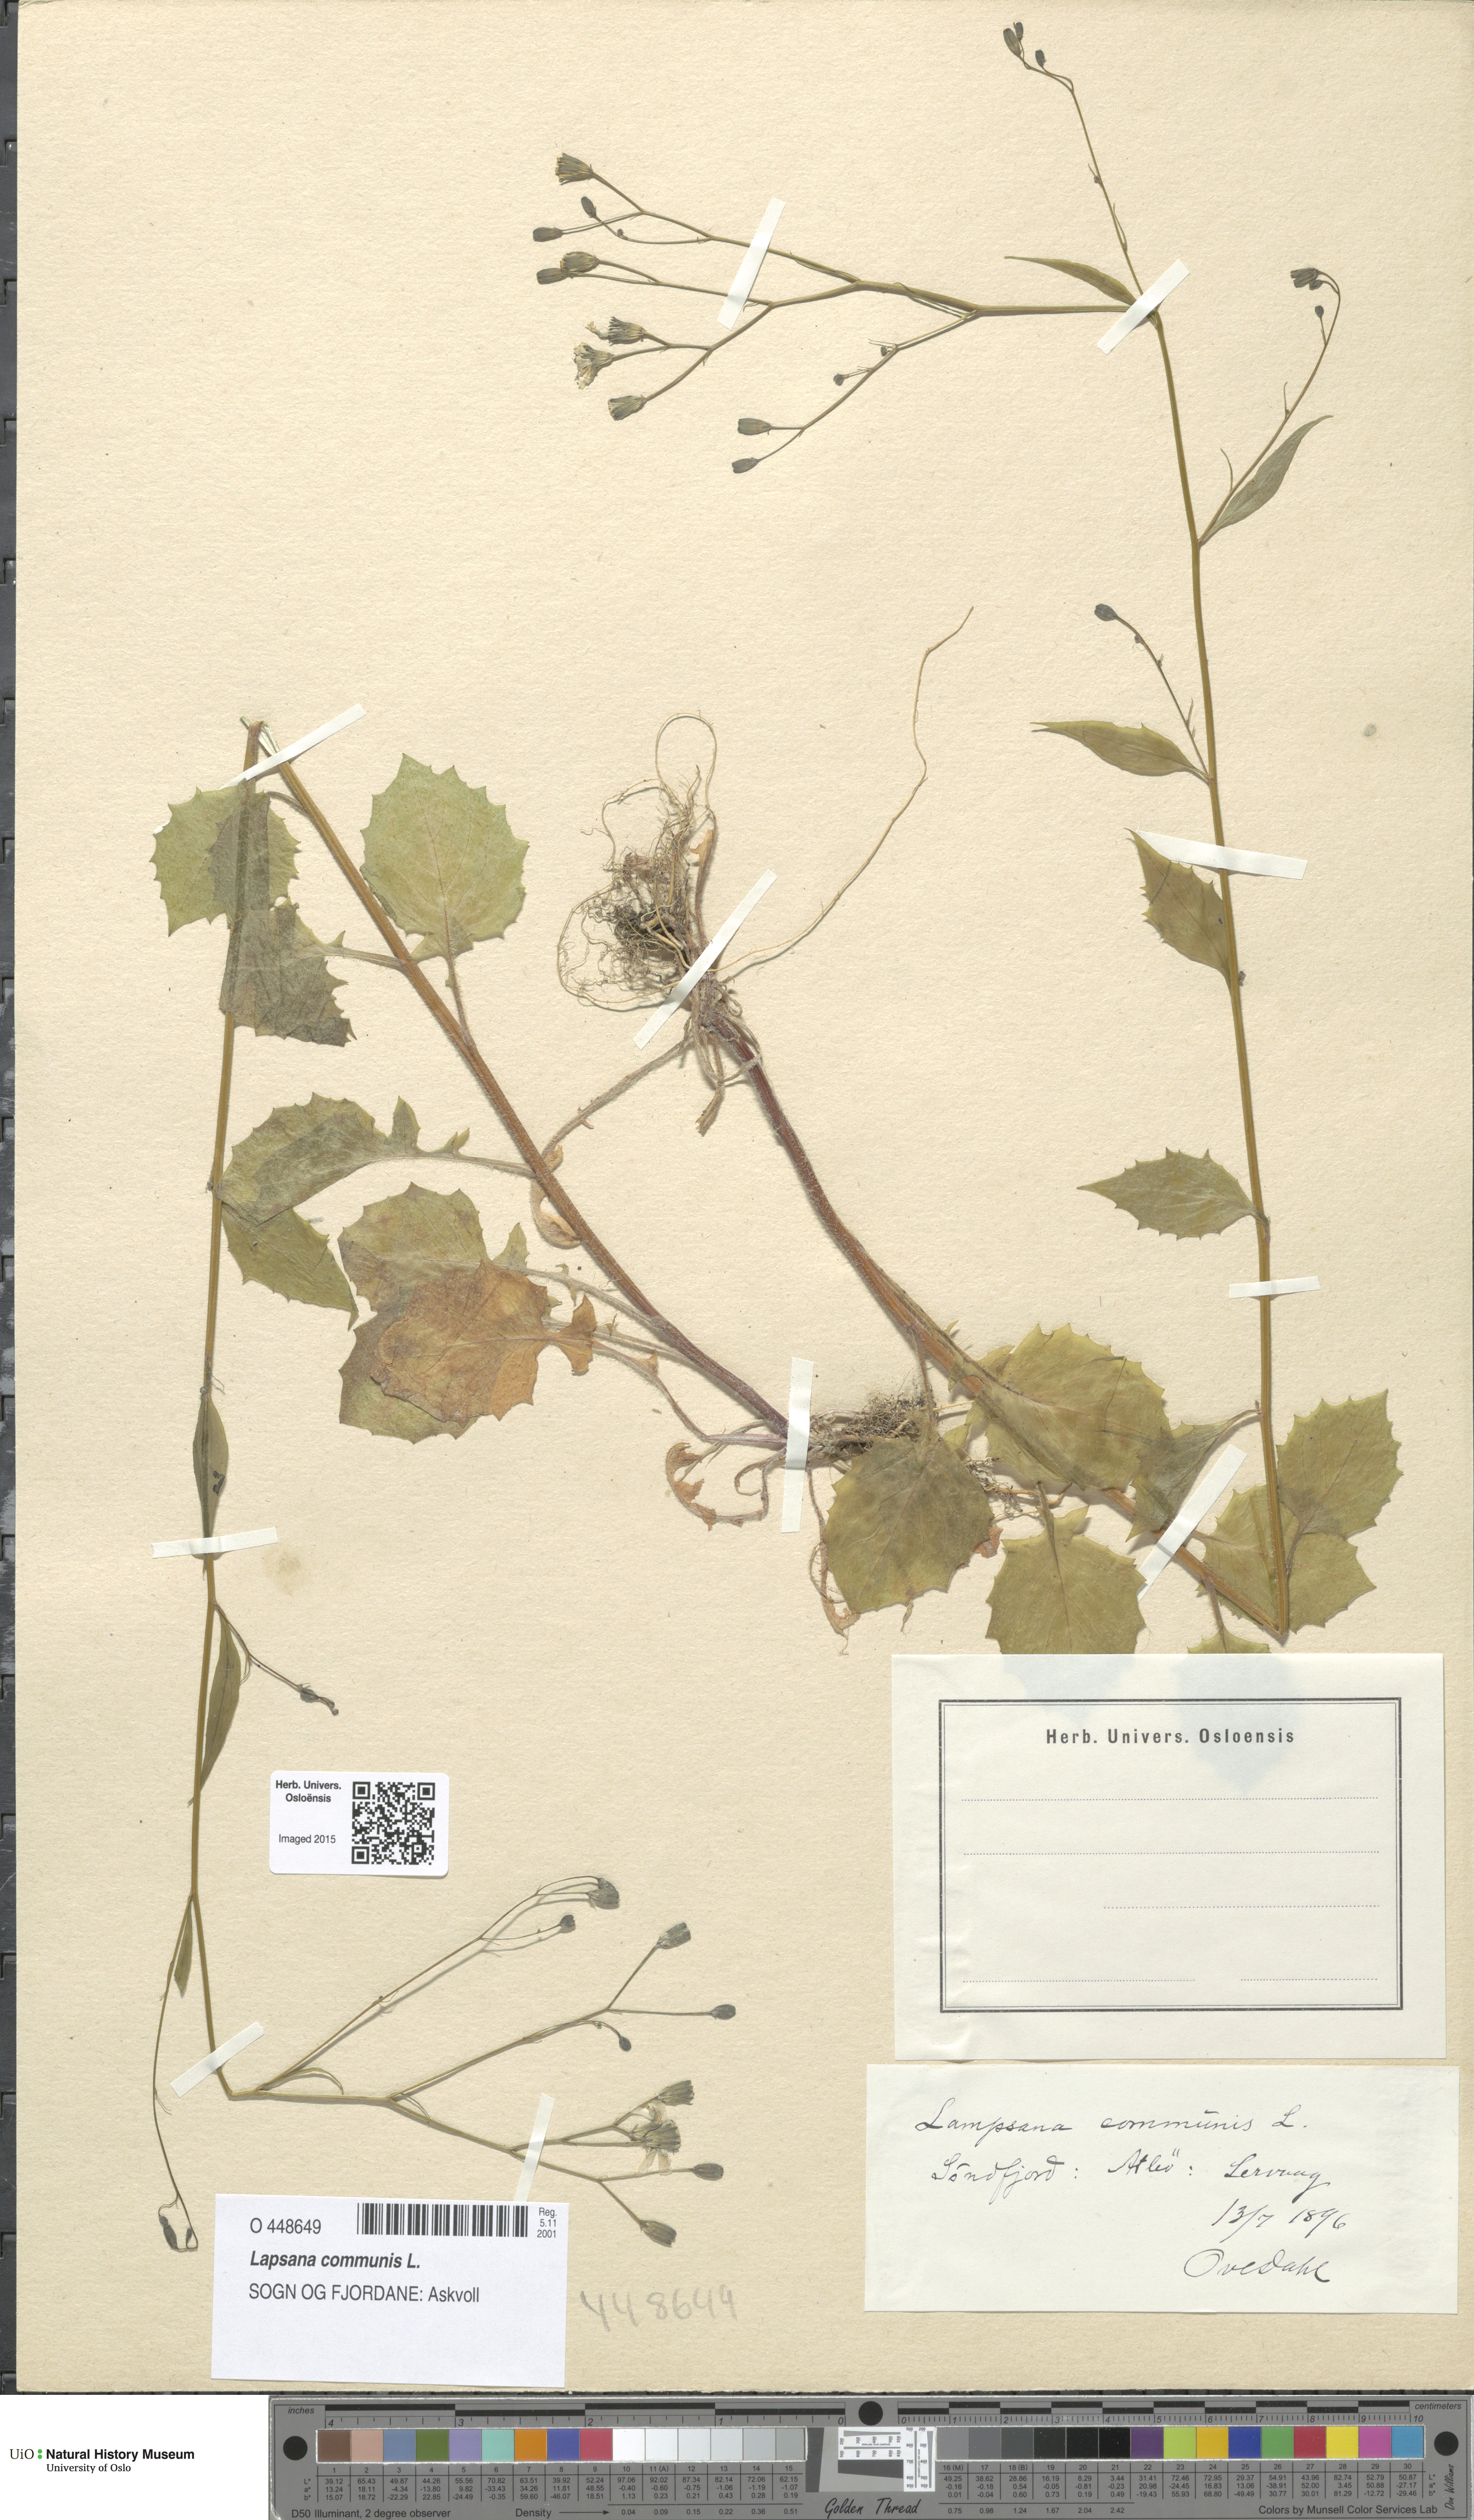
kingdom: Plantae
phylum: Tracheophyta
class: Magnoliopsida
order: Asterales
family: Asteraceae
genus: Lapsana
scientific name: Lapsana communis
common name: Nipplewort
